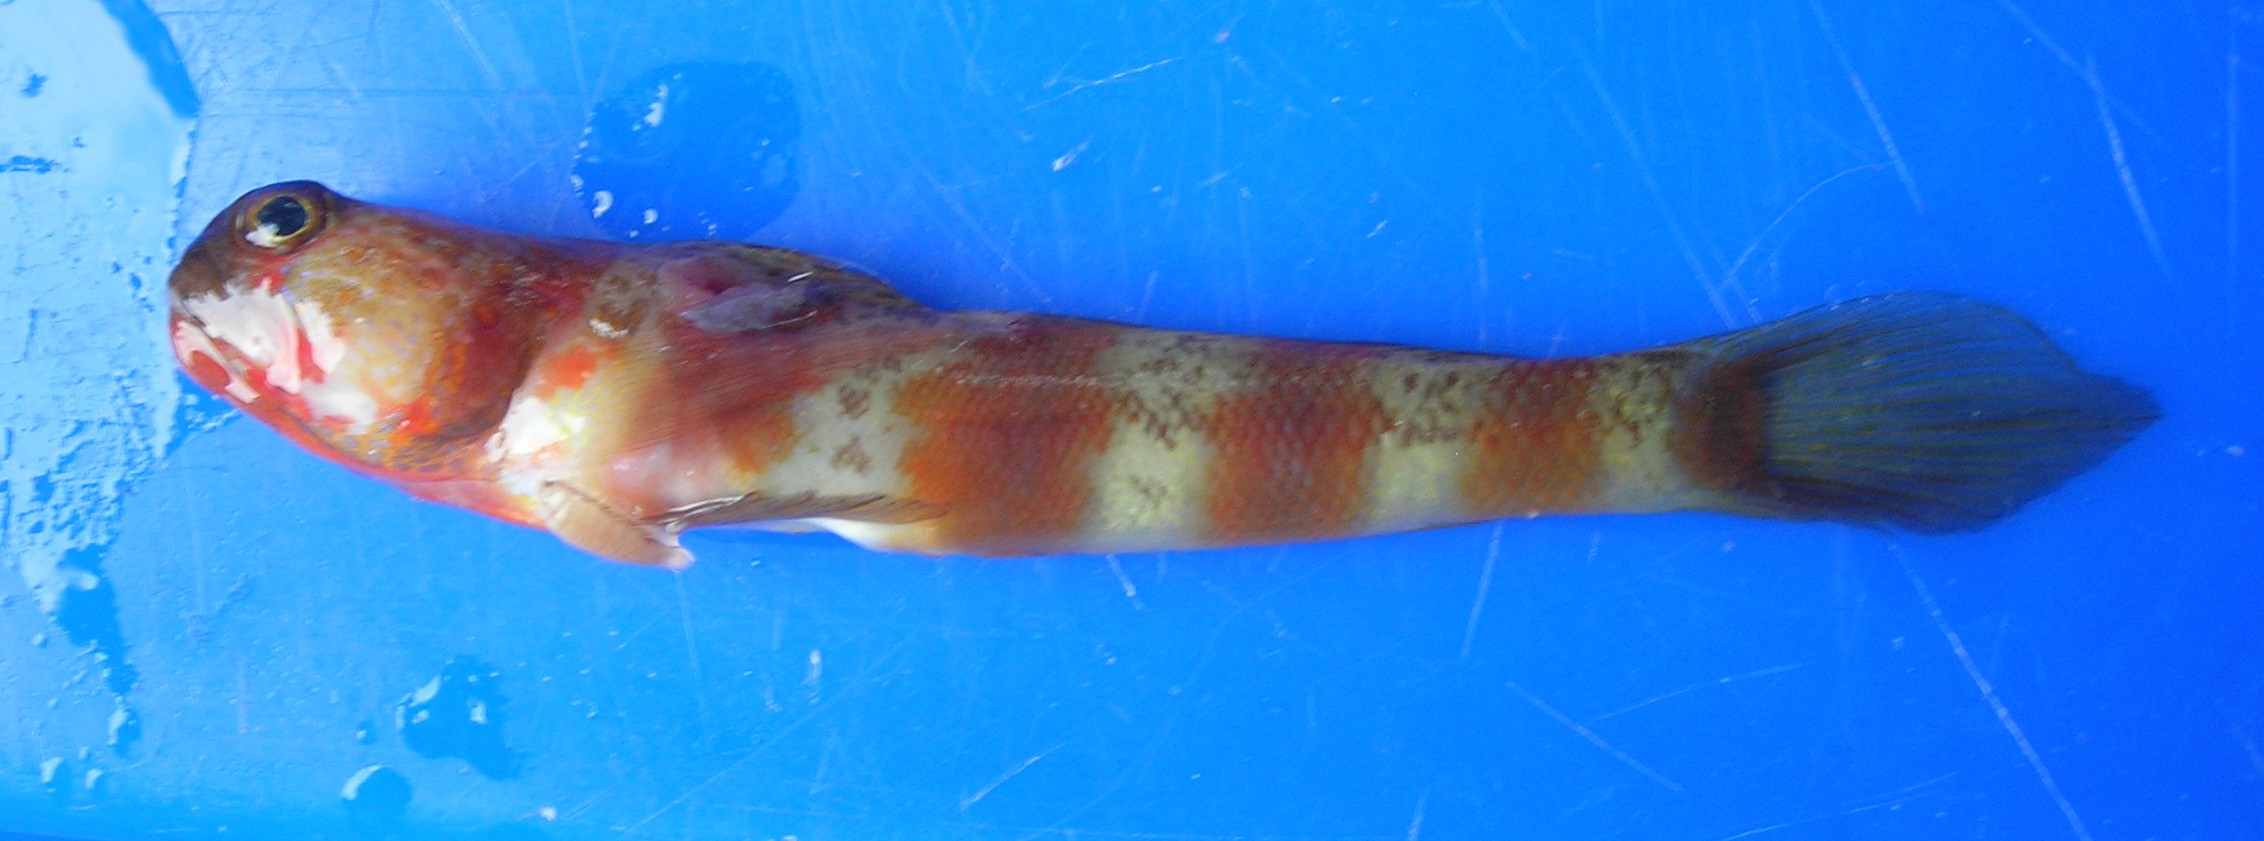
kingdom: Animalia
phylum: Chordata
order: Perciformes
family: Gobiidae
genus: Amblyeleotris
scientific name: Amblyeleotris wheeleri
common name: Gorgeous prawn-goby
